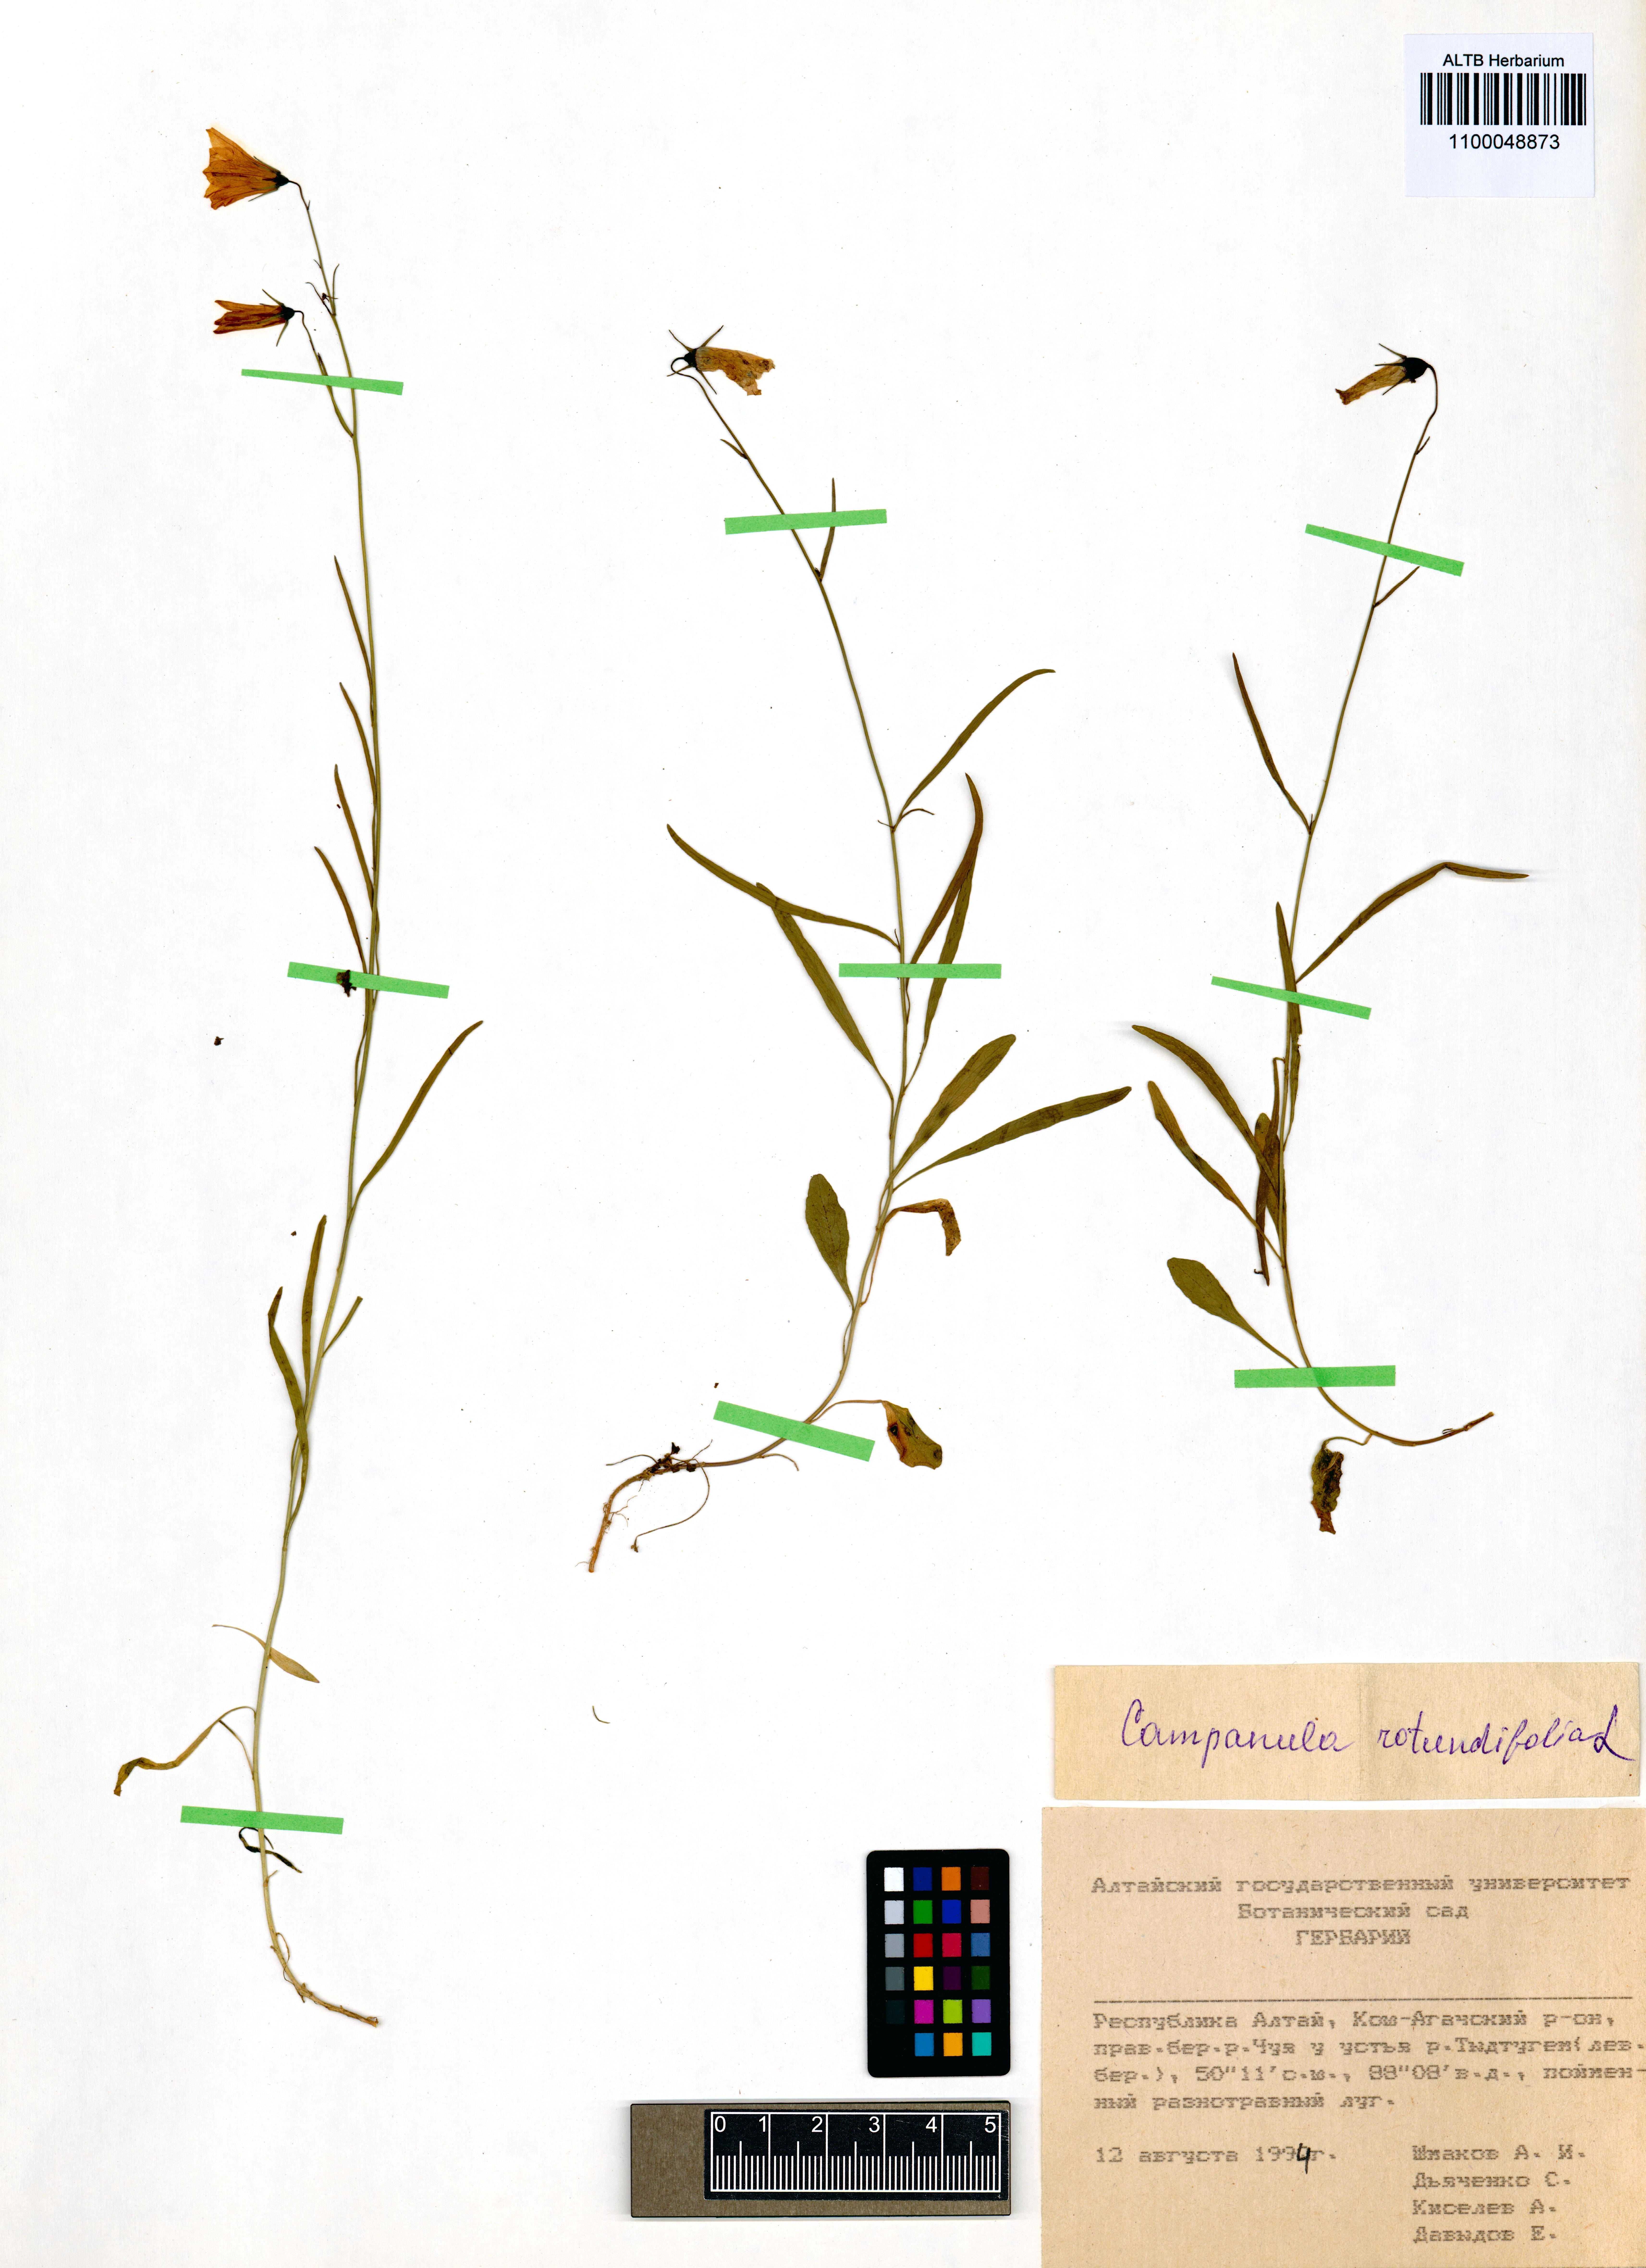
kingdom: Plantae
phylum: Tracheophyta
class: Magnoliopsida
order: Asterales
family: Campanulaceae
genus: Campanula
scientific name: Campanula rotundifolia
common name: Harebell
